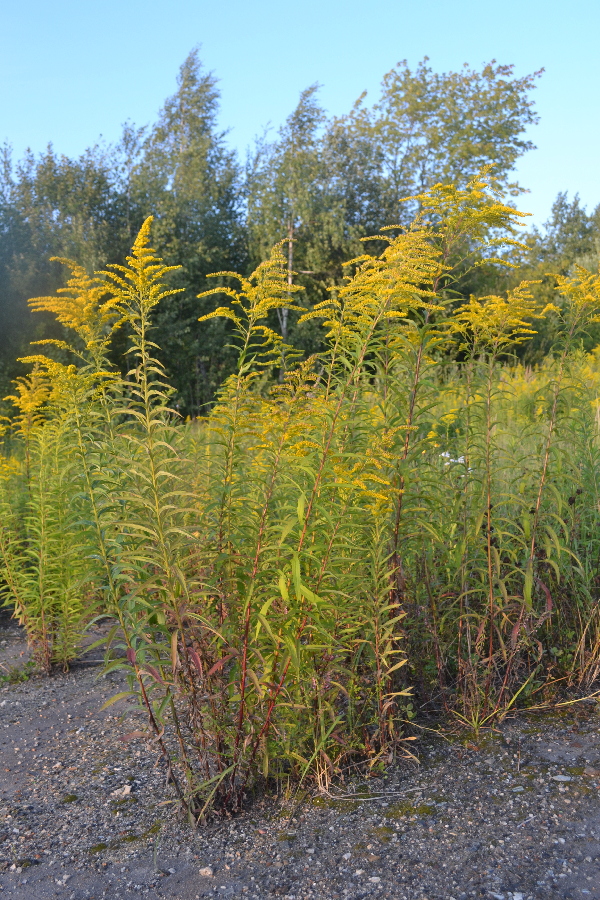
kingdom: Plantae
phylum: Tracheophyta
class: Magnoliopsida
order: Asterales
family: Asteraceae
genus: Solidago
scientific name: Solidago canadensis
